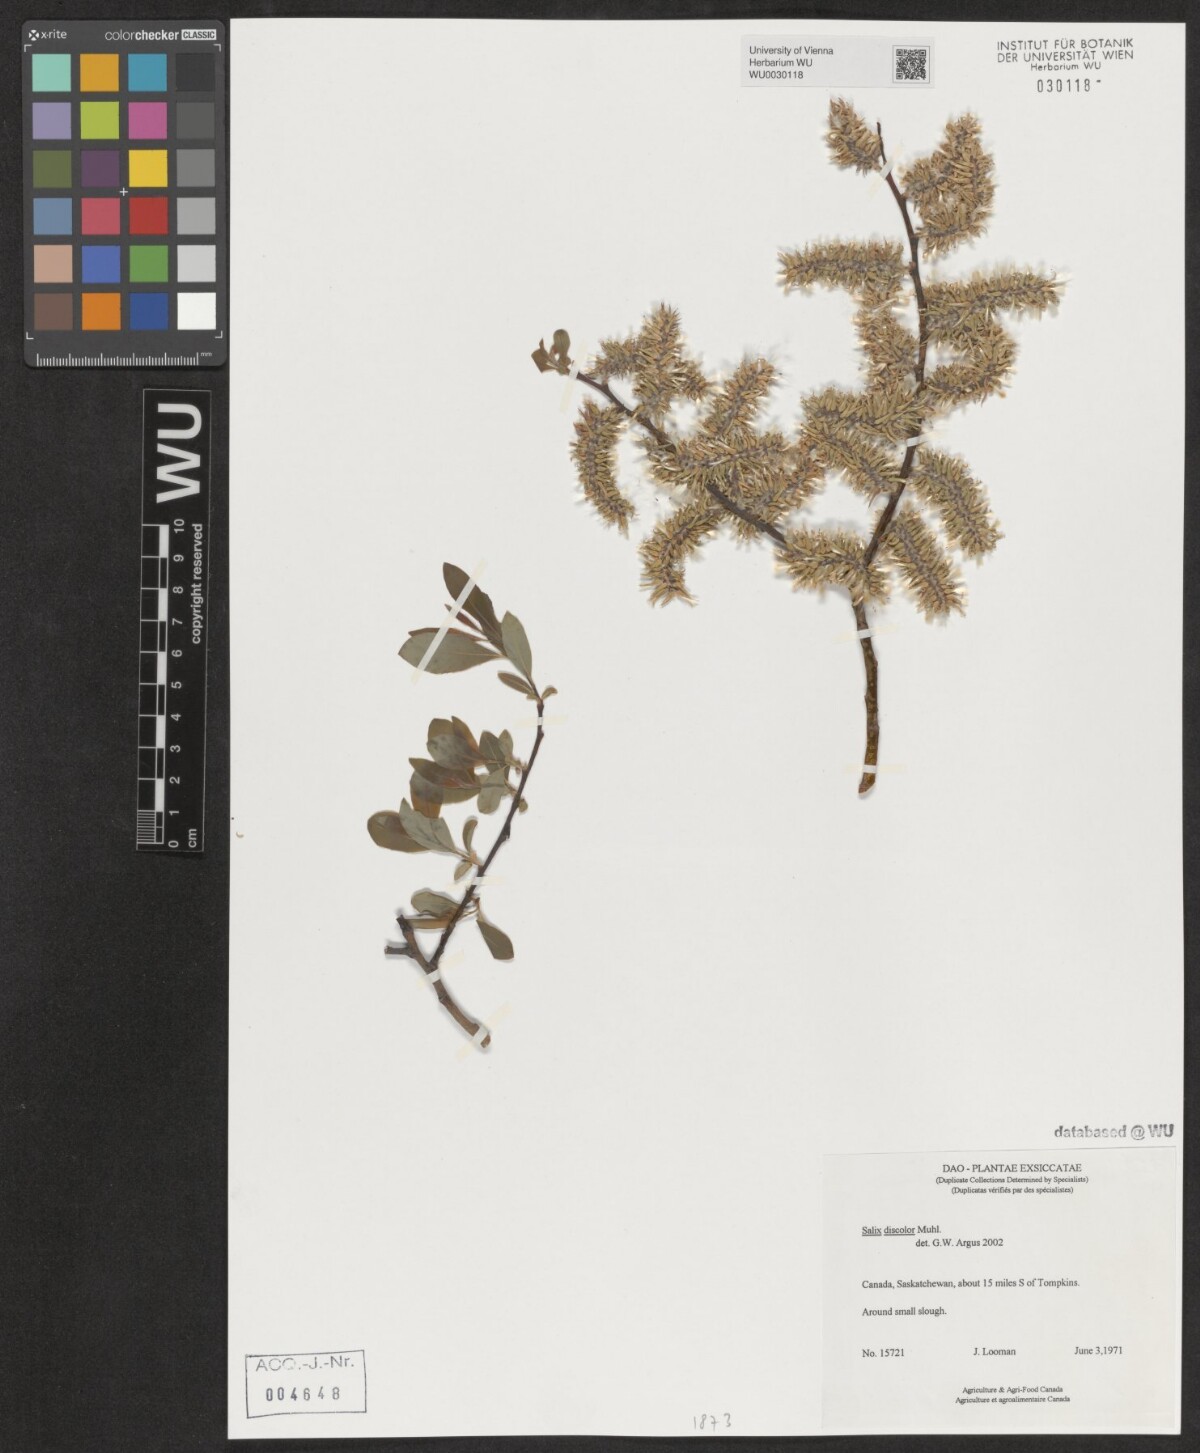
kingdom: Plantae
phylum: Tracheophyta
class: Magnoliopsida
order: Malpighiales
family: Salicaceae
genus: Salix
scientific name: Salix discolor
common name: Glaucous willow
